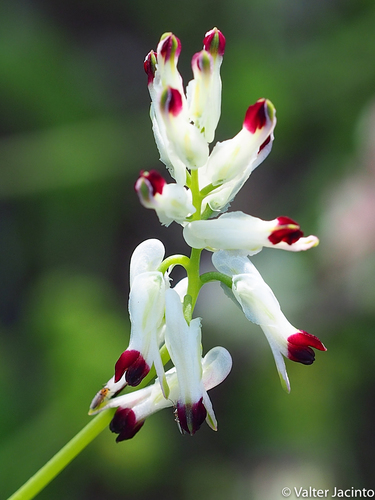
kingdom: Plantae
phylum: Tracheophyta
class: Magnoliopsida
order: Ranunculales
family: Papaveraceae
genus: Fumaria
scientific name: Fumaria capreolata
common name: White ramping-fumitory
